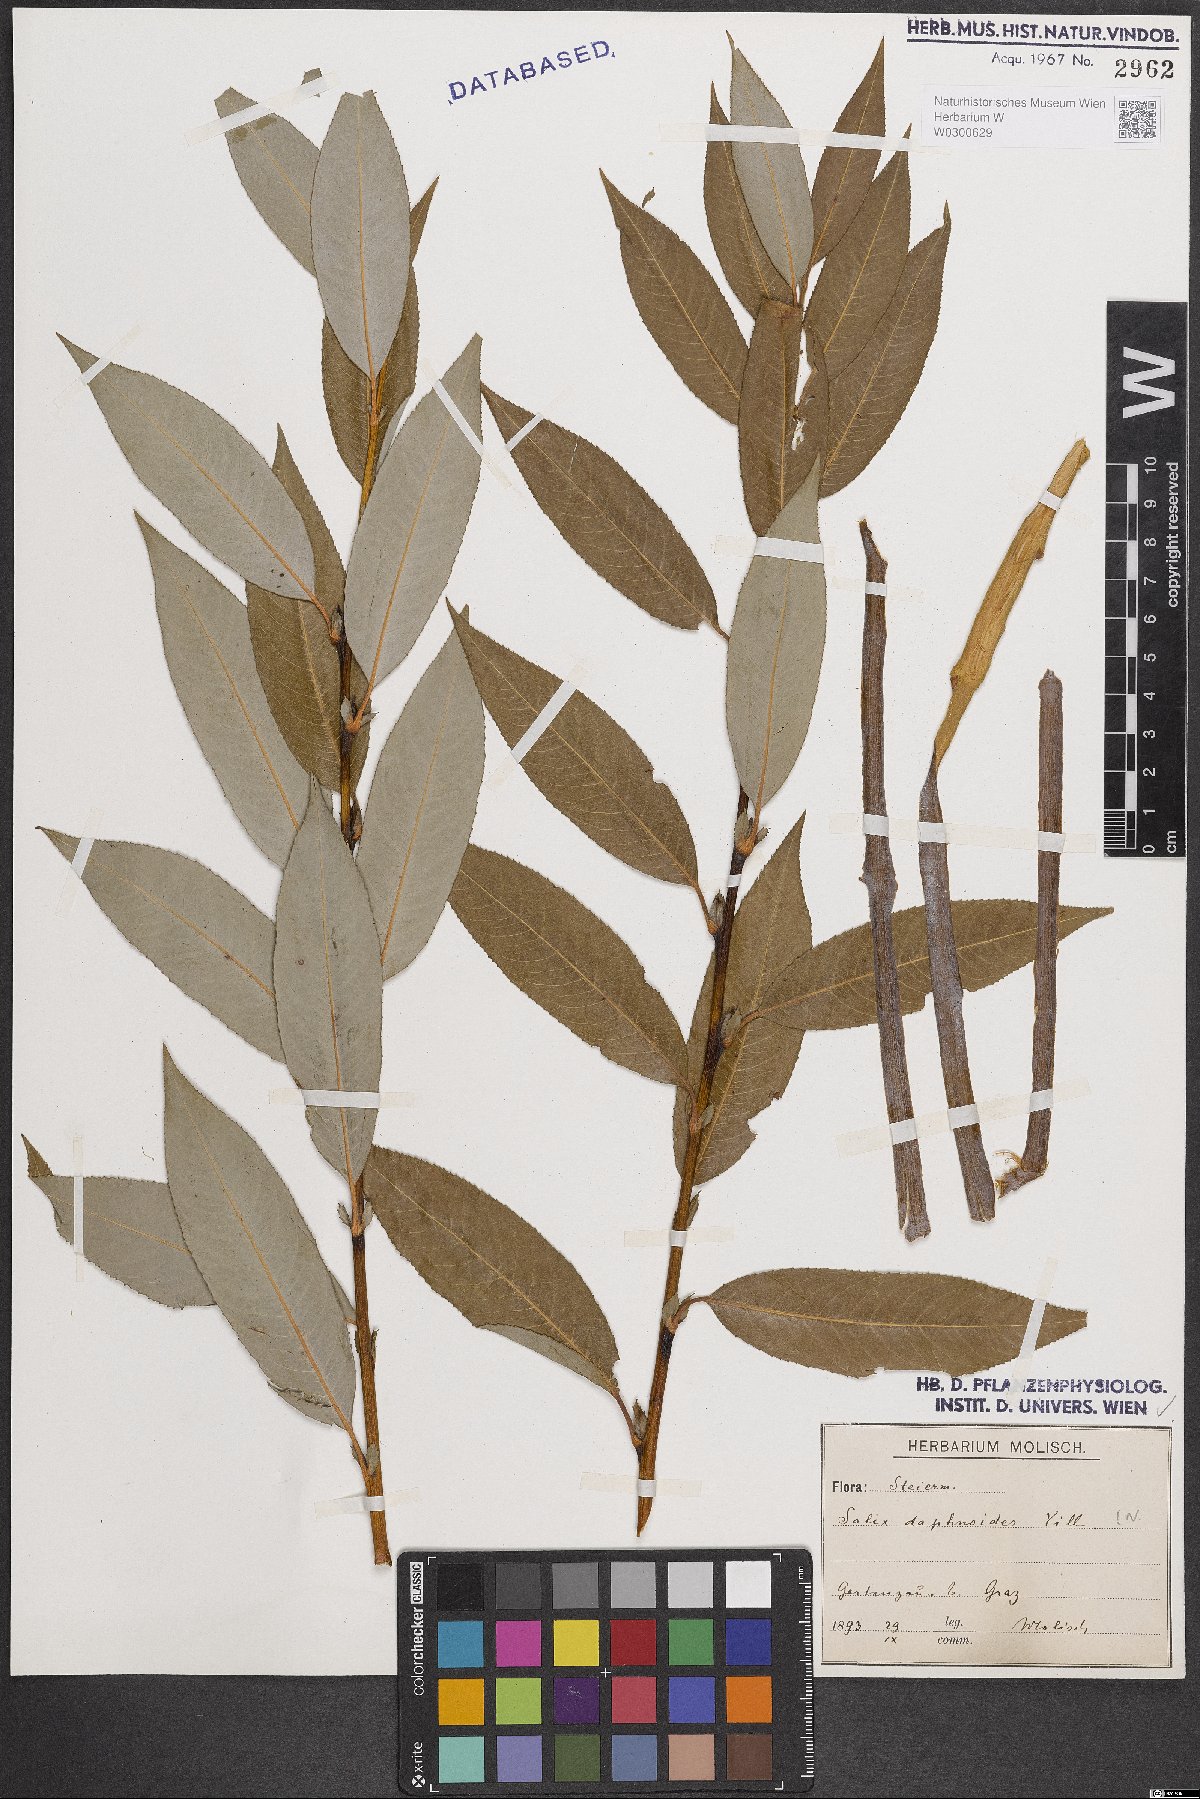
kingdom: Plantae
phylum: Tracheophyta
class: Magnoliopsida
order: Malpighiales
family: Salicaceae
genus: Salix
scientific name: Salix daphnoides
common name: European violet-willow
